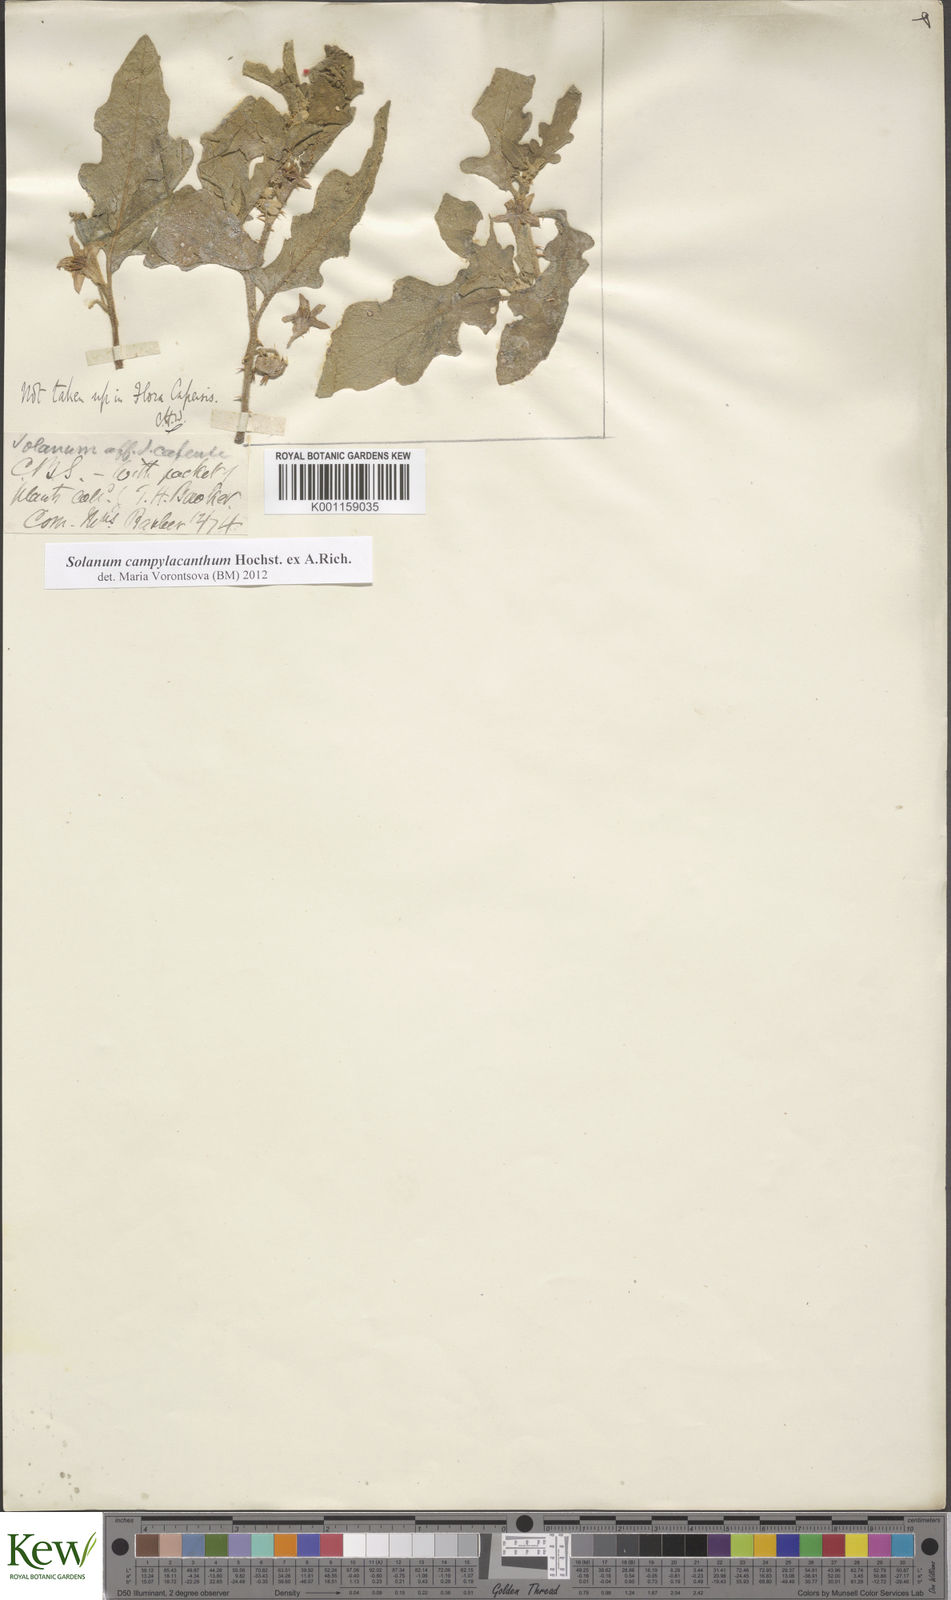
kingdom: Plantae
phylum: Tracheophyta
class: Magnoliopsida
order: Solanales
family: Solanaceae
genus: Solanum
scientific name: Solanum campylacanthum
